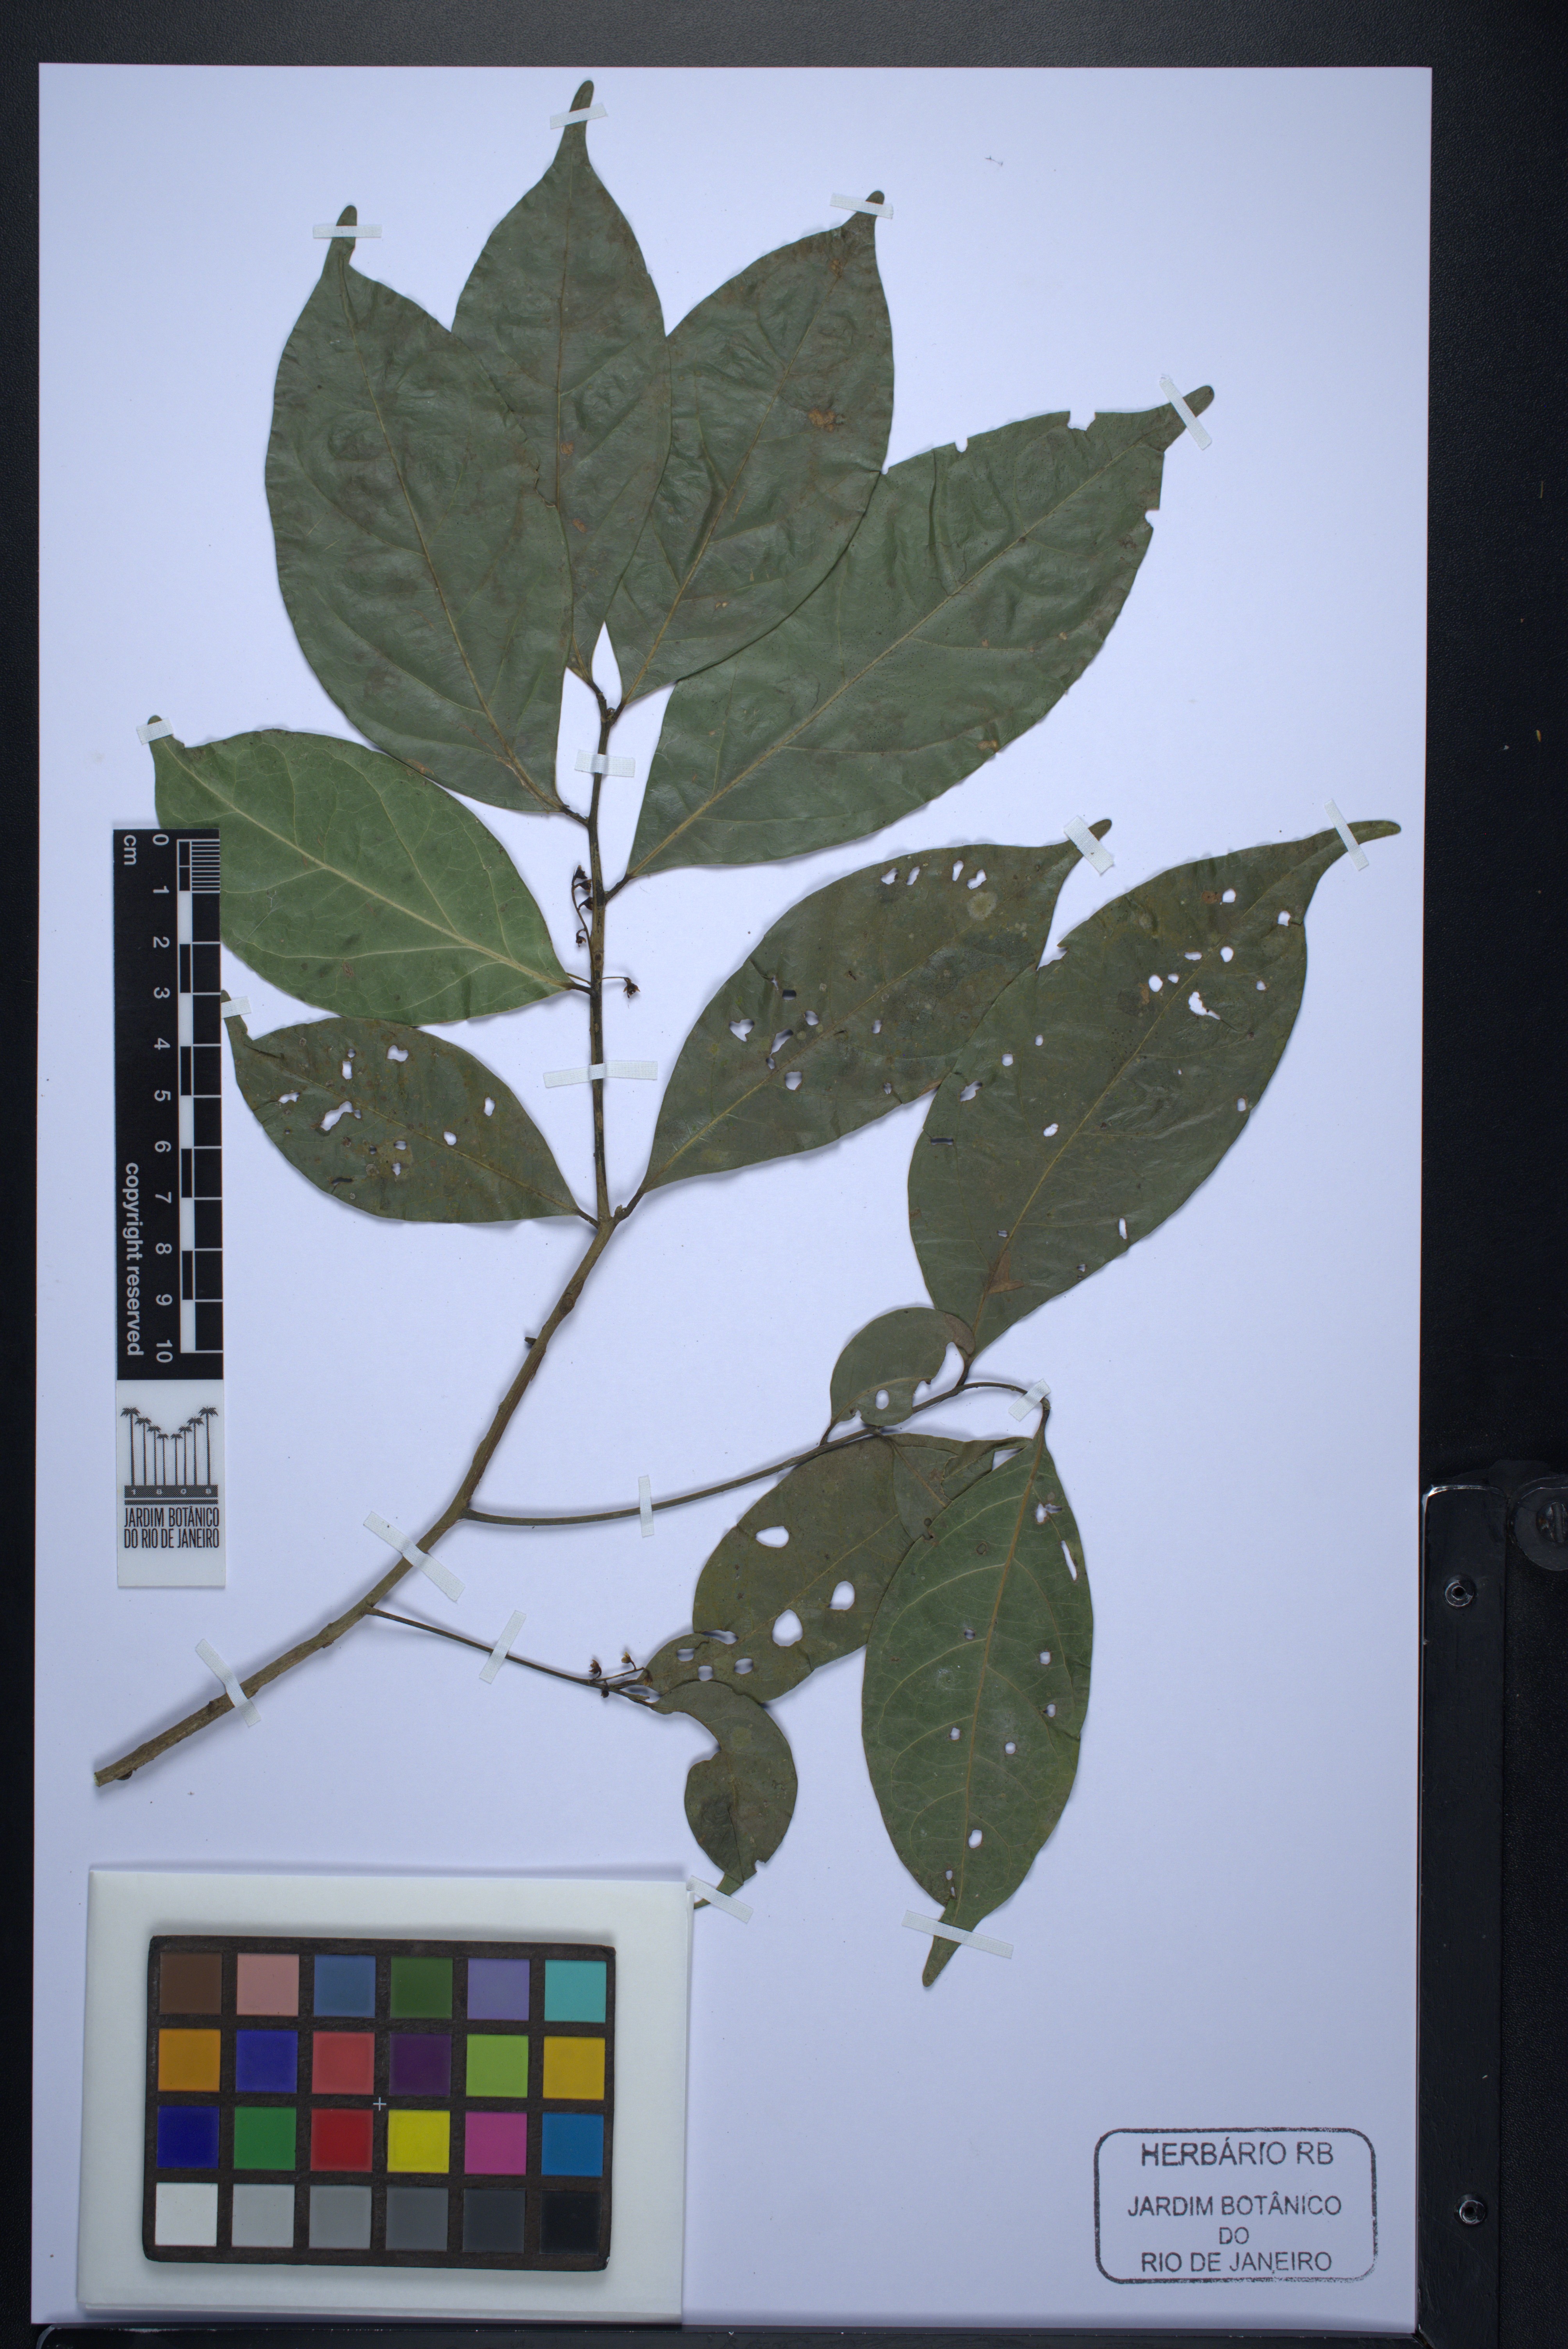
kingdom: Plantae
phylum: Tracheophyta
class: Magnoliopsida
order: Laurales
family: Lauraceae
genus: Pleurothyrium
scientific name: Pleurothyrium
